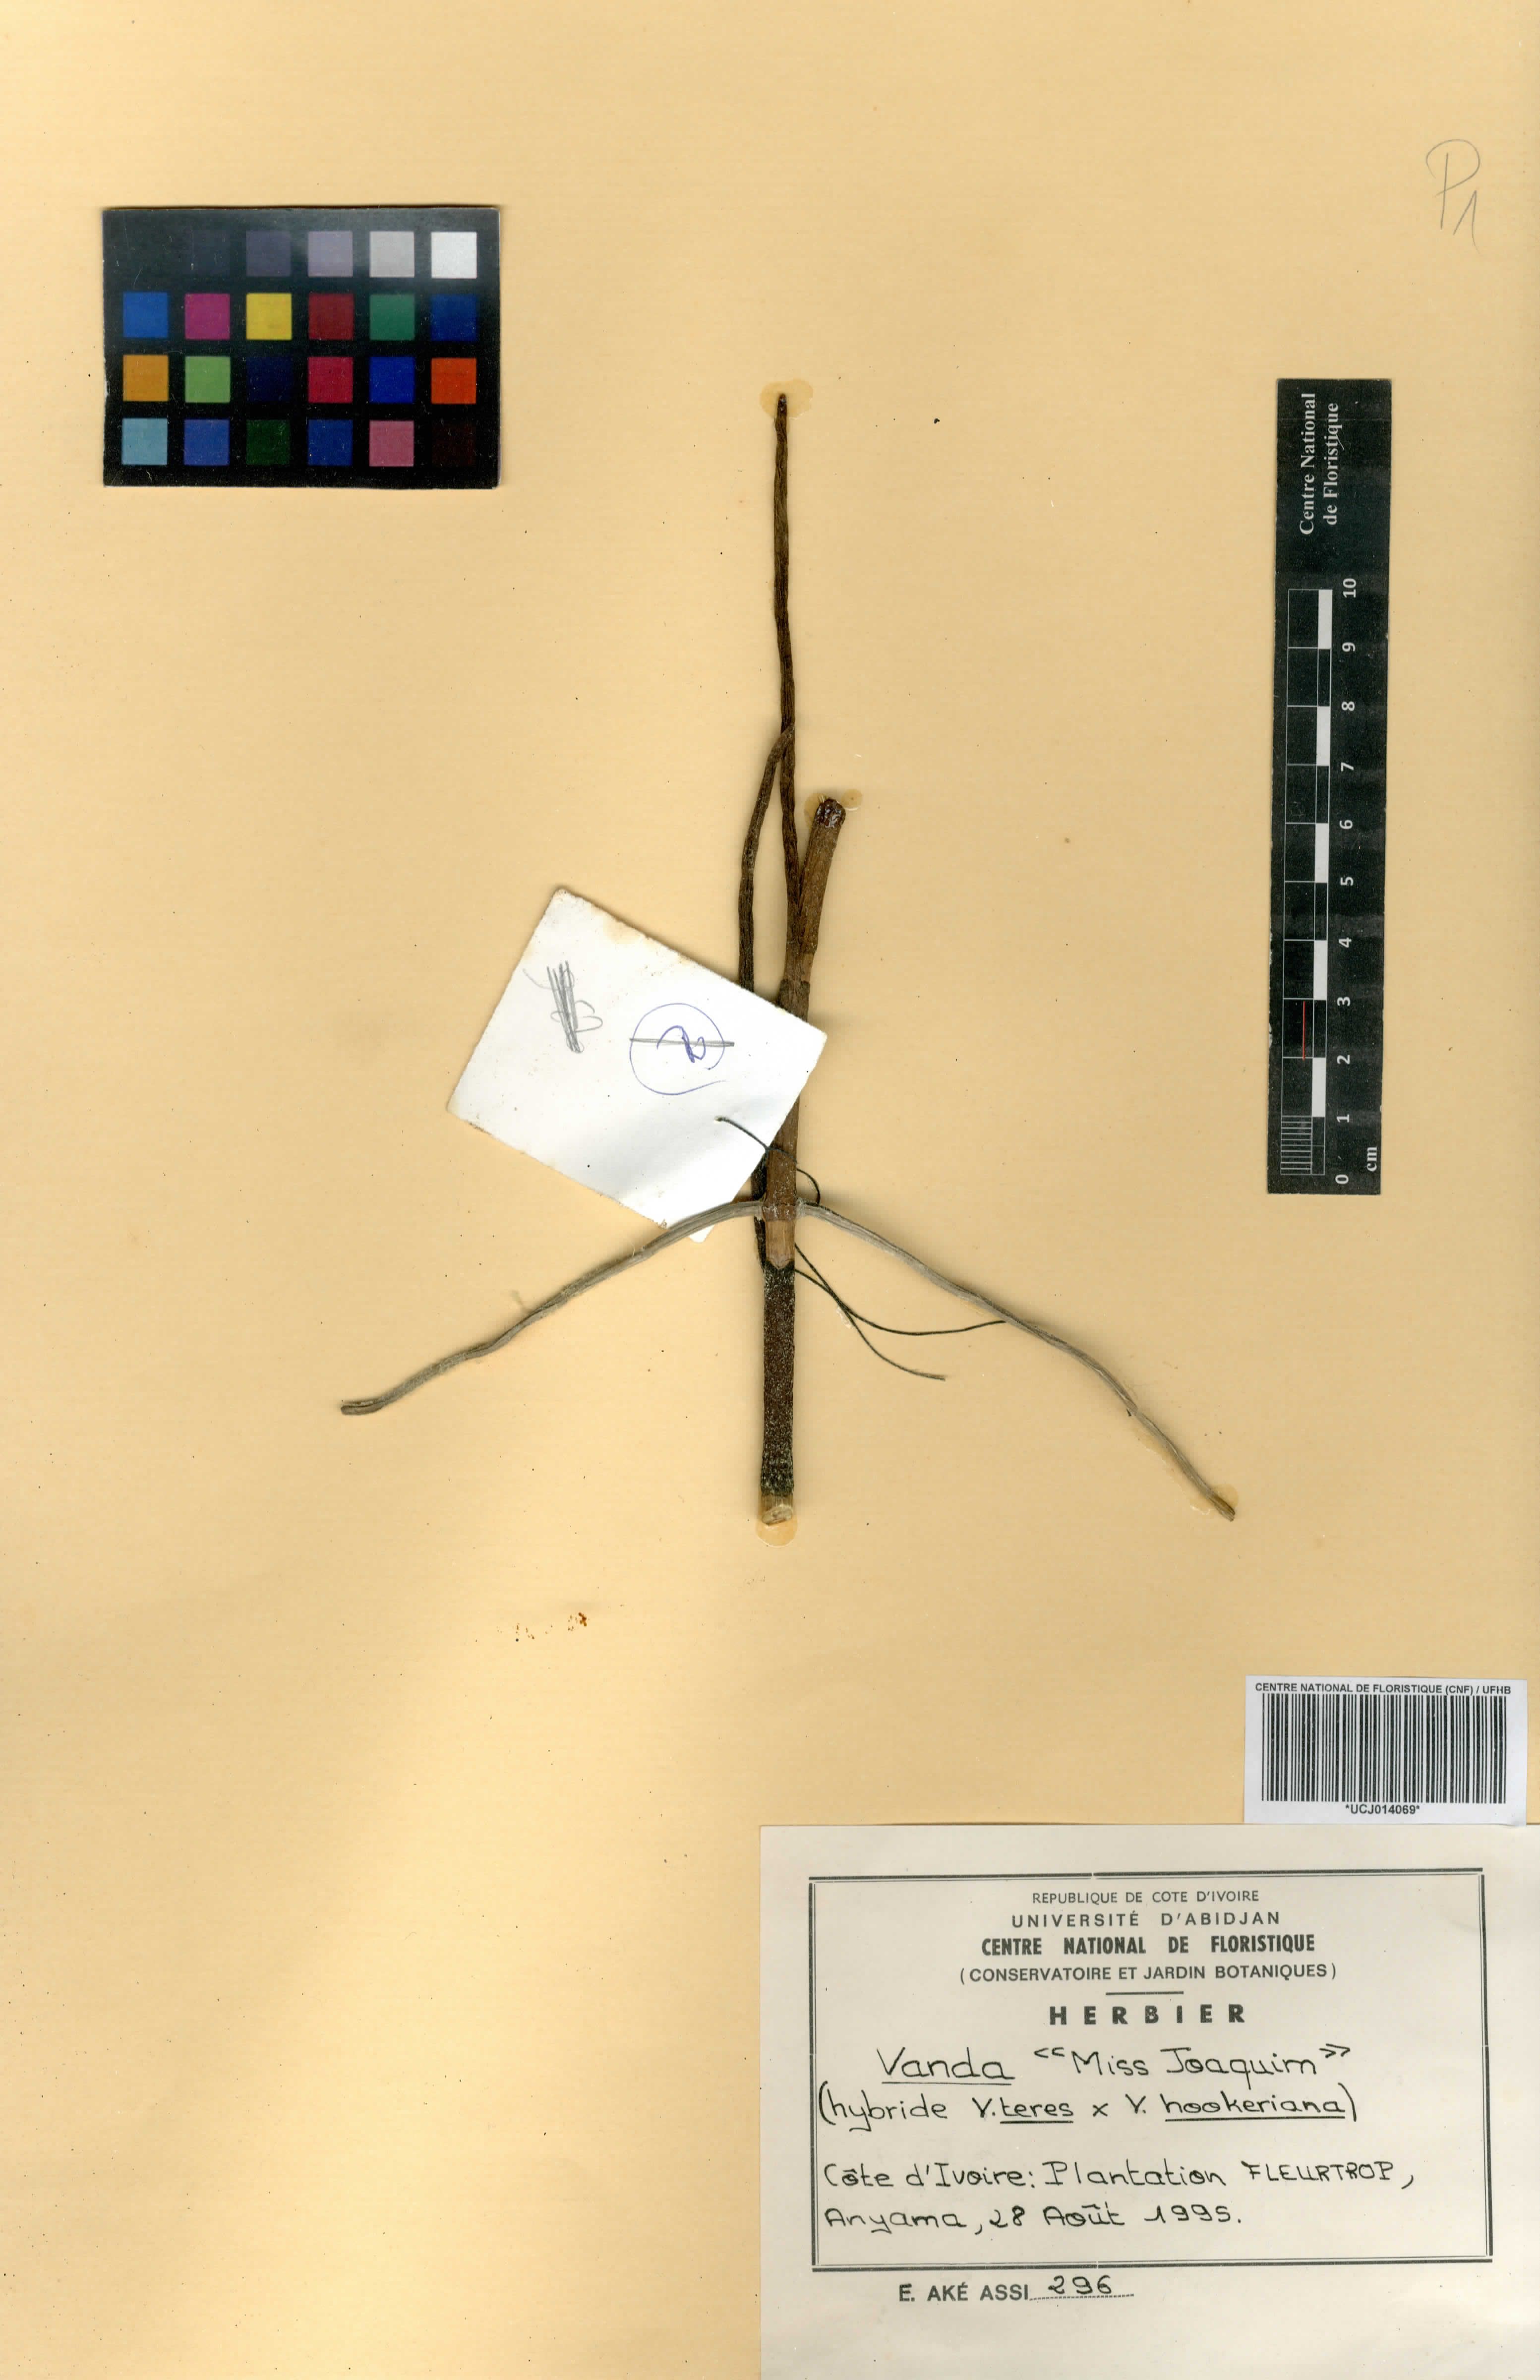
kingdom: Plantae
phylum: Tracheophyta
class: Liliopsida
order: Asparagales
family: Orchidaceae
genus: Vanda
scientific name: Vanda
